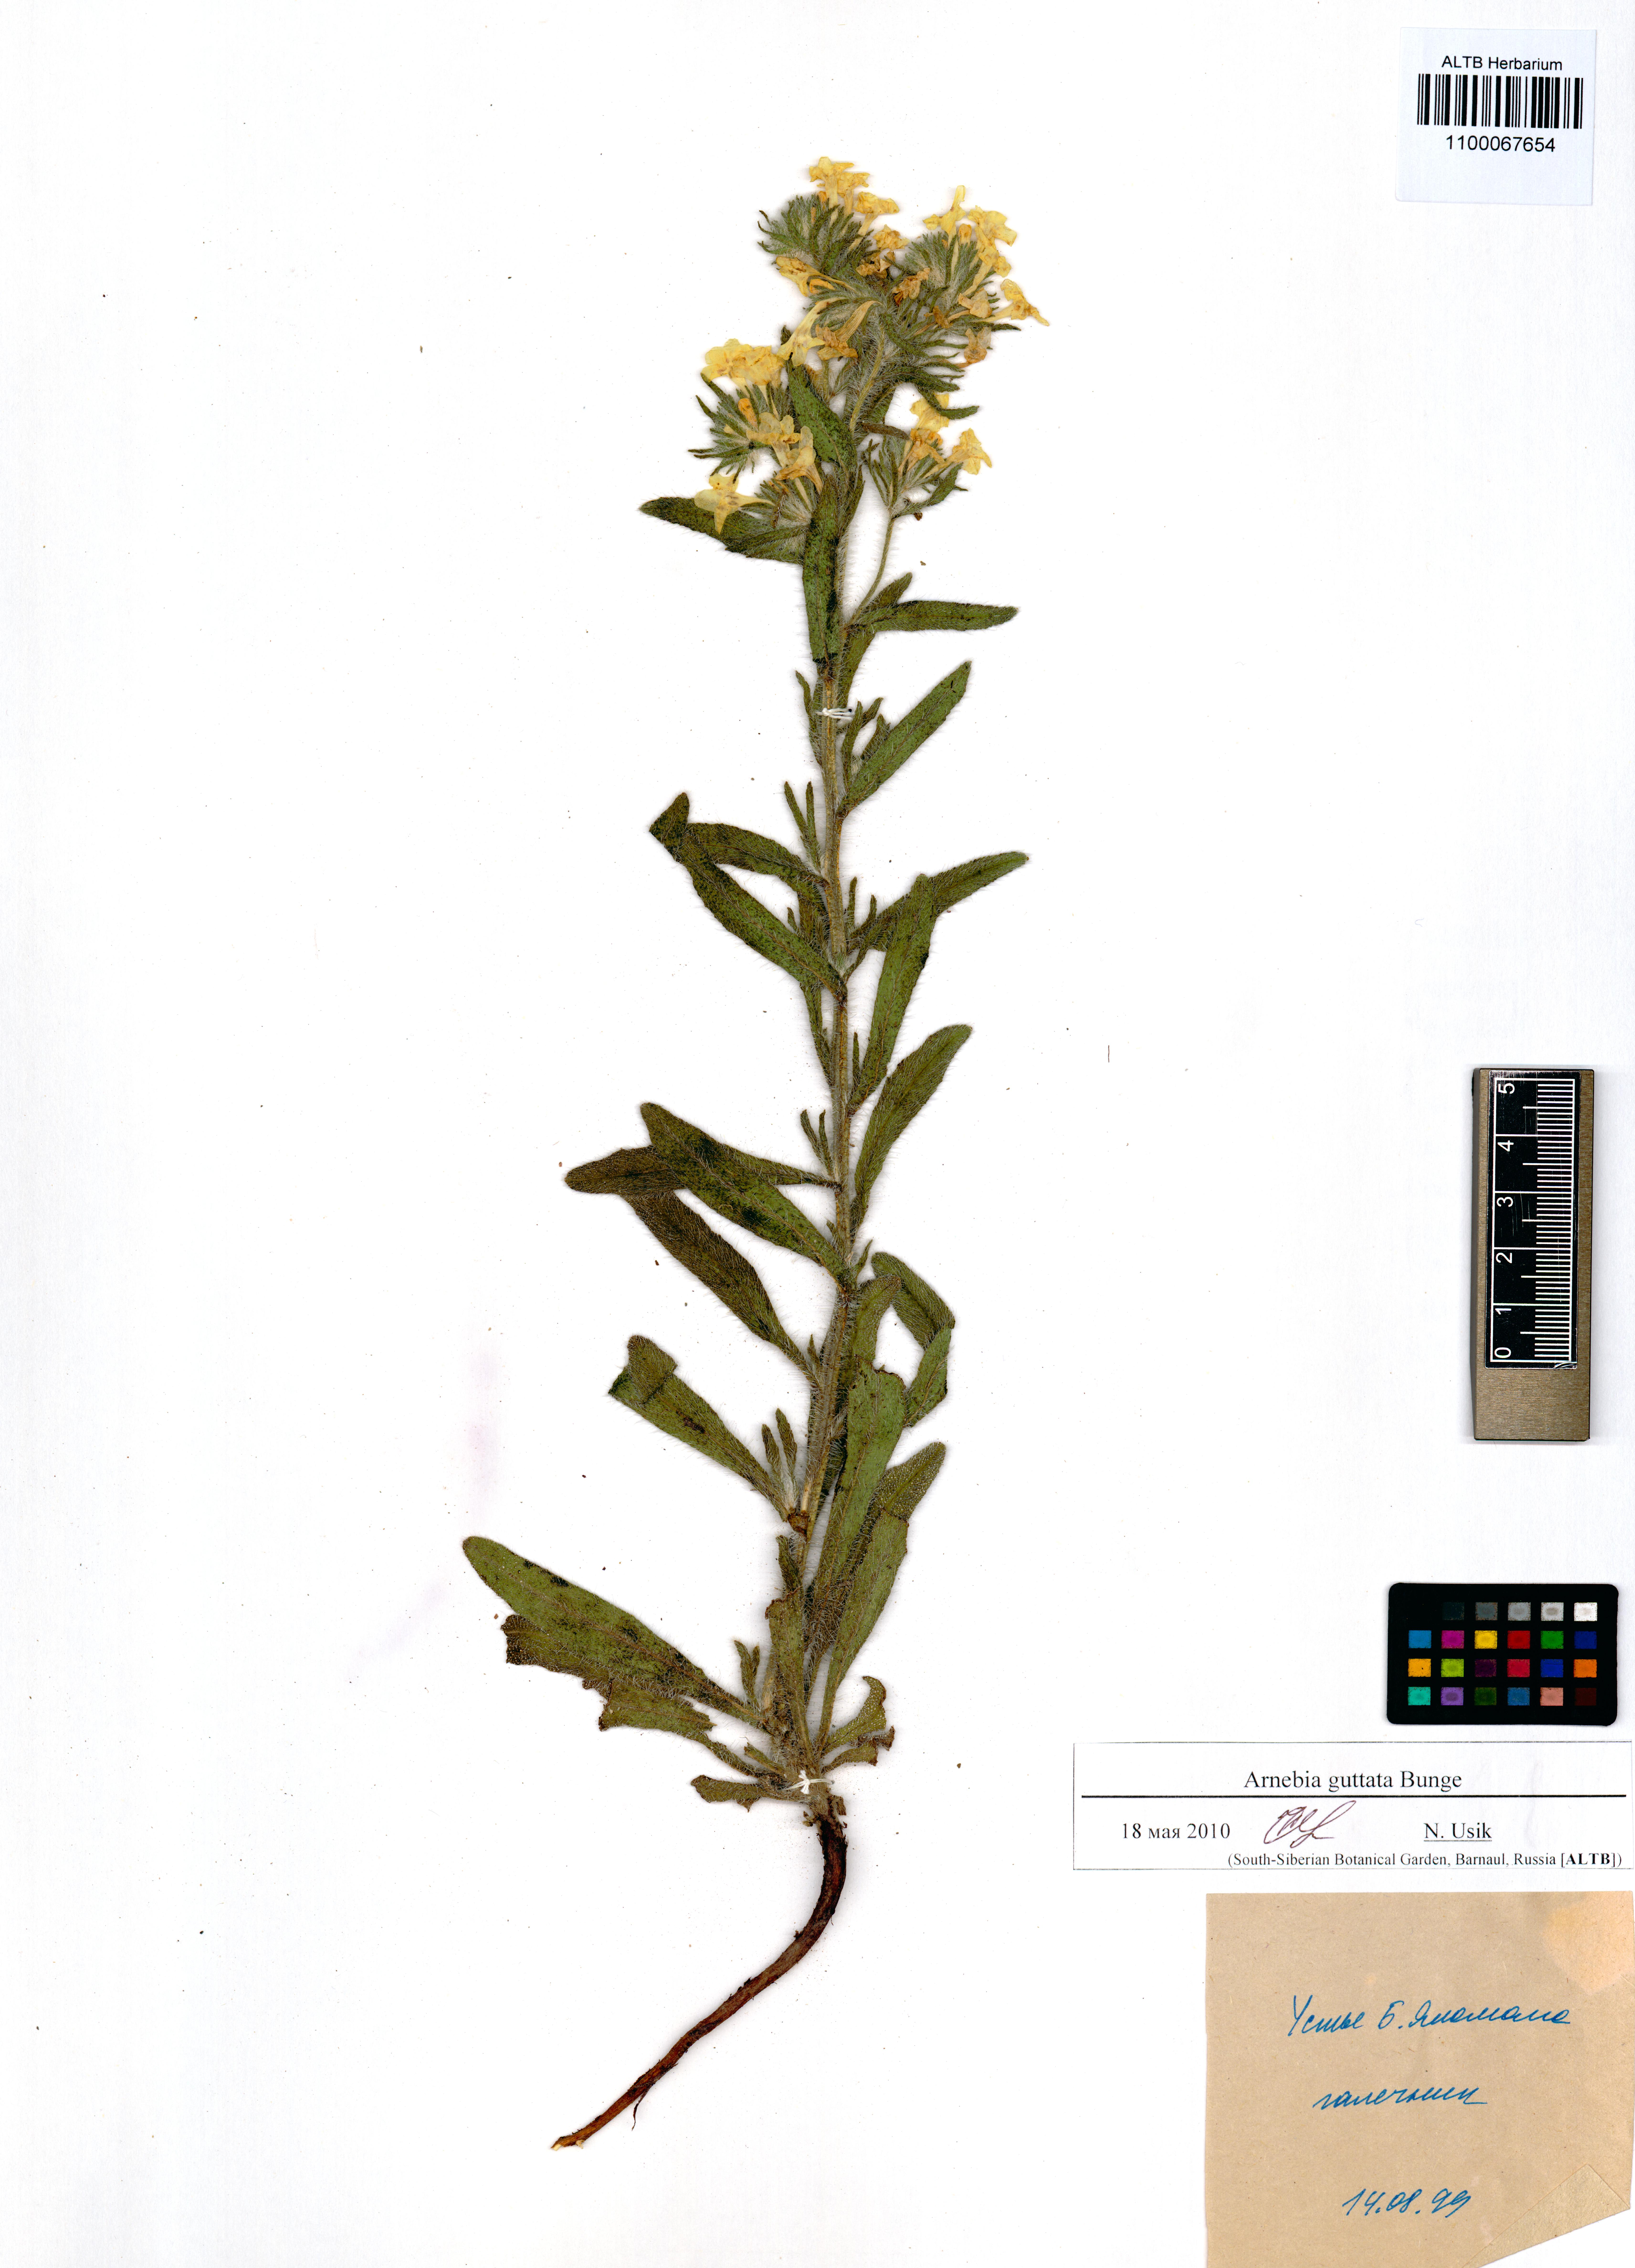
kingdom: Plantae
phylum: Tracheophyta
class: Magnoliopsida
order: Boraginales
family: Boraginaceae
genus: Arnebia
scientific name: Arnebia guttata
